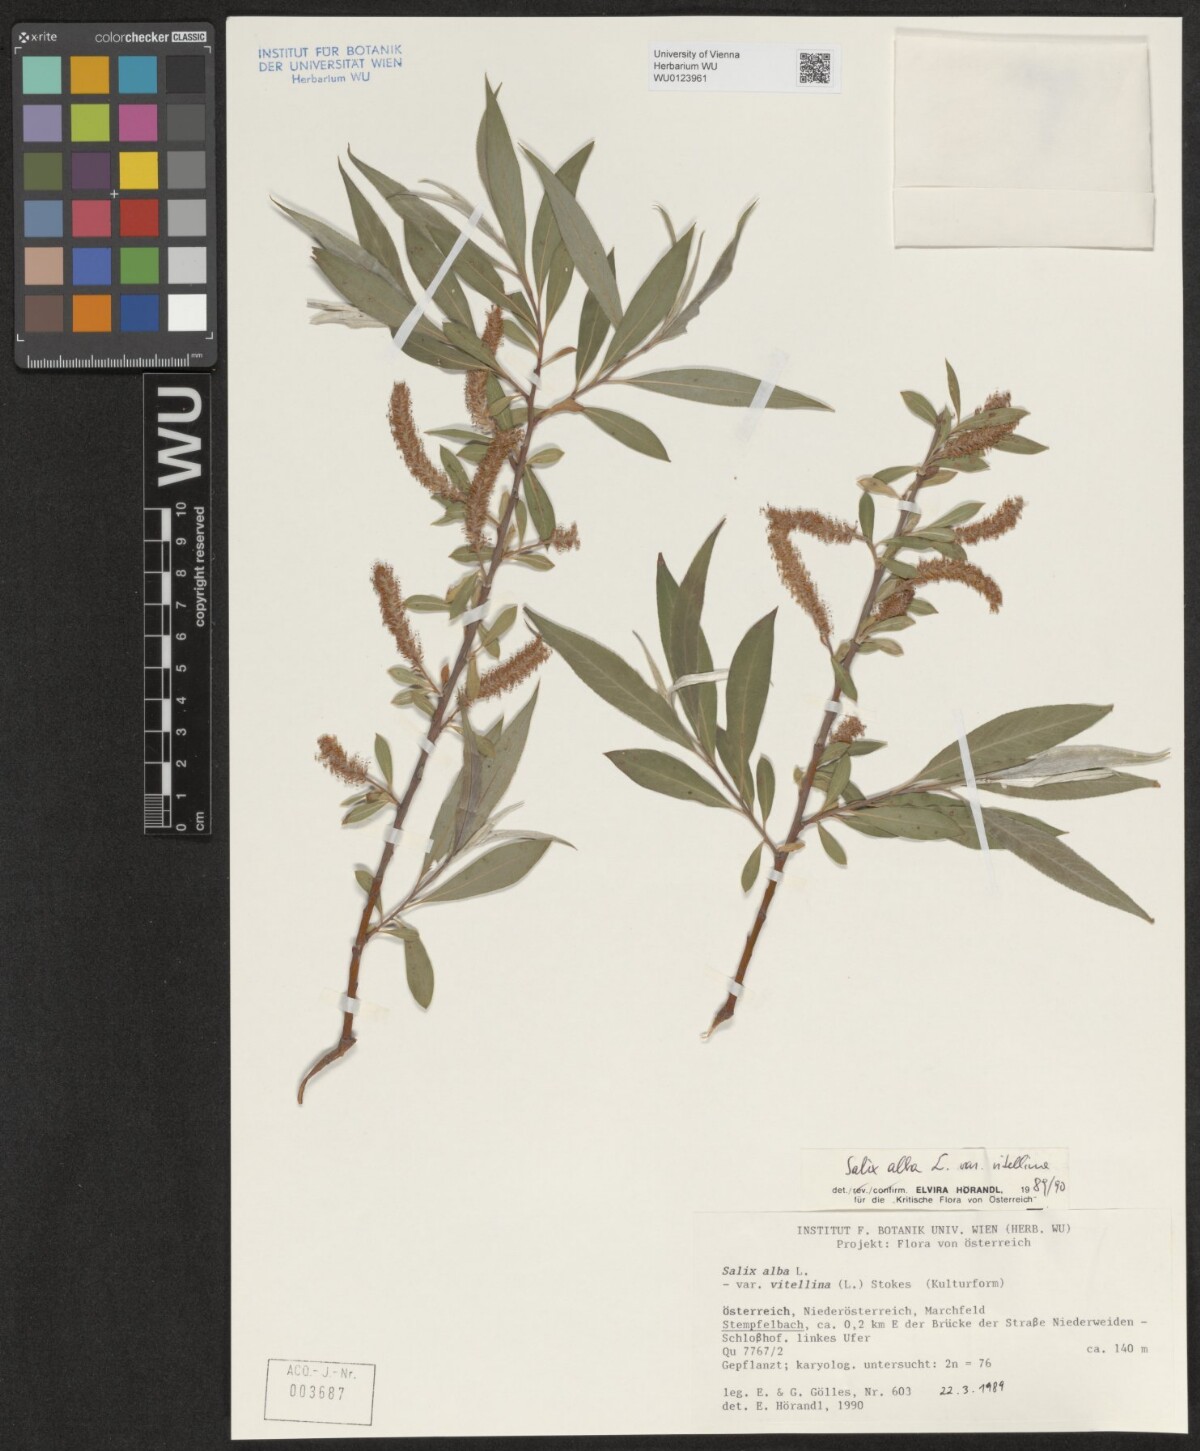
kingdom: Plantae
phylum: Tracheophyta
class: Magnoliopsida
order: Malpighiales
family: Salicaceae
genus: Salix
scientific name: Salix alba
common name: White willow
